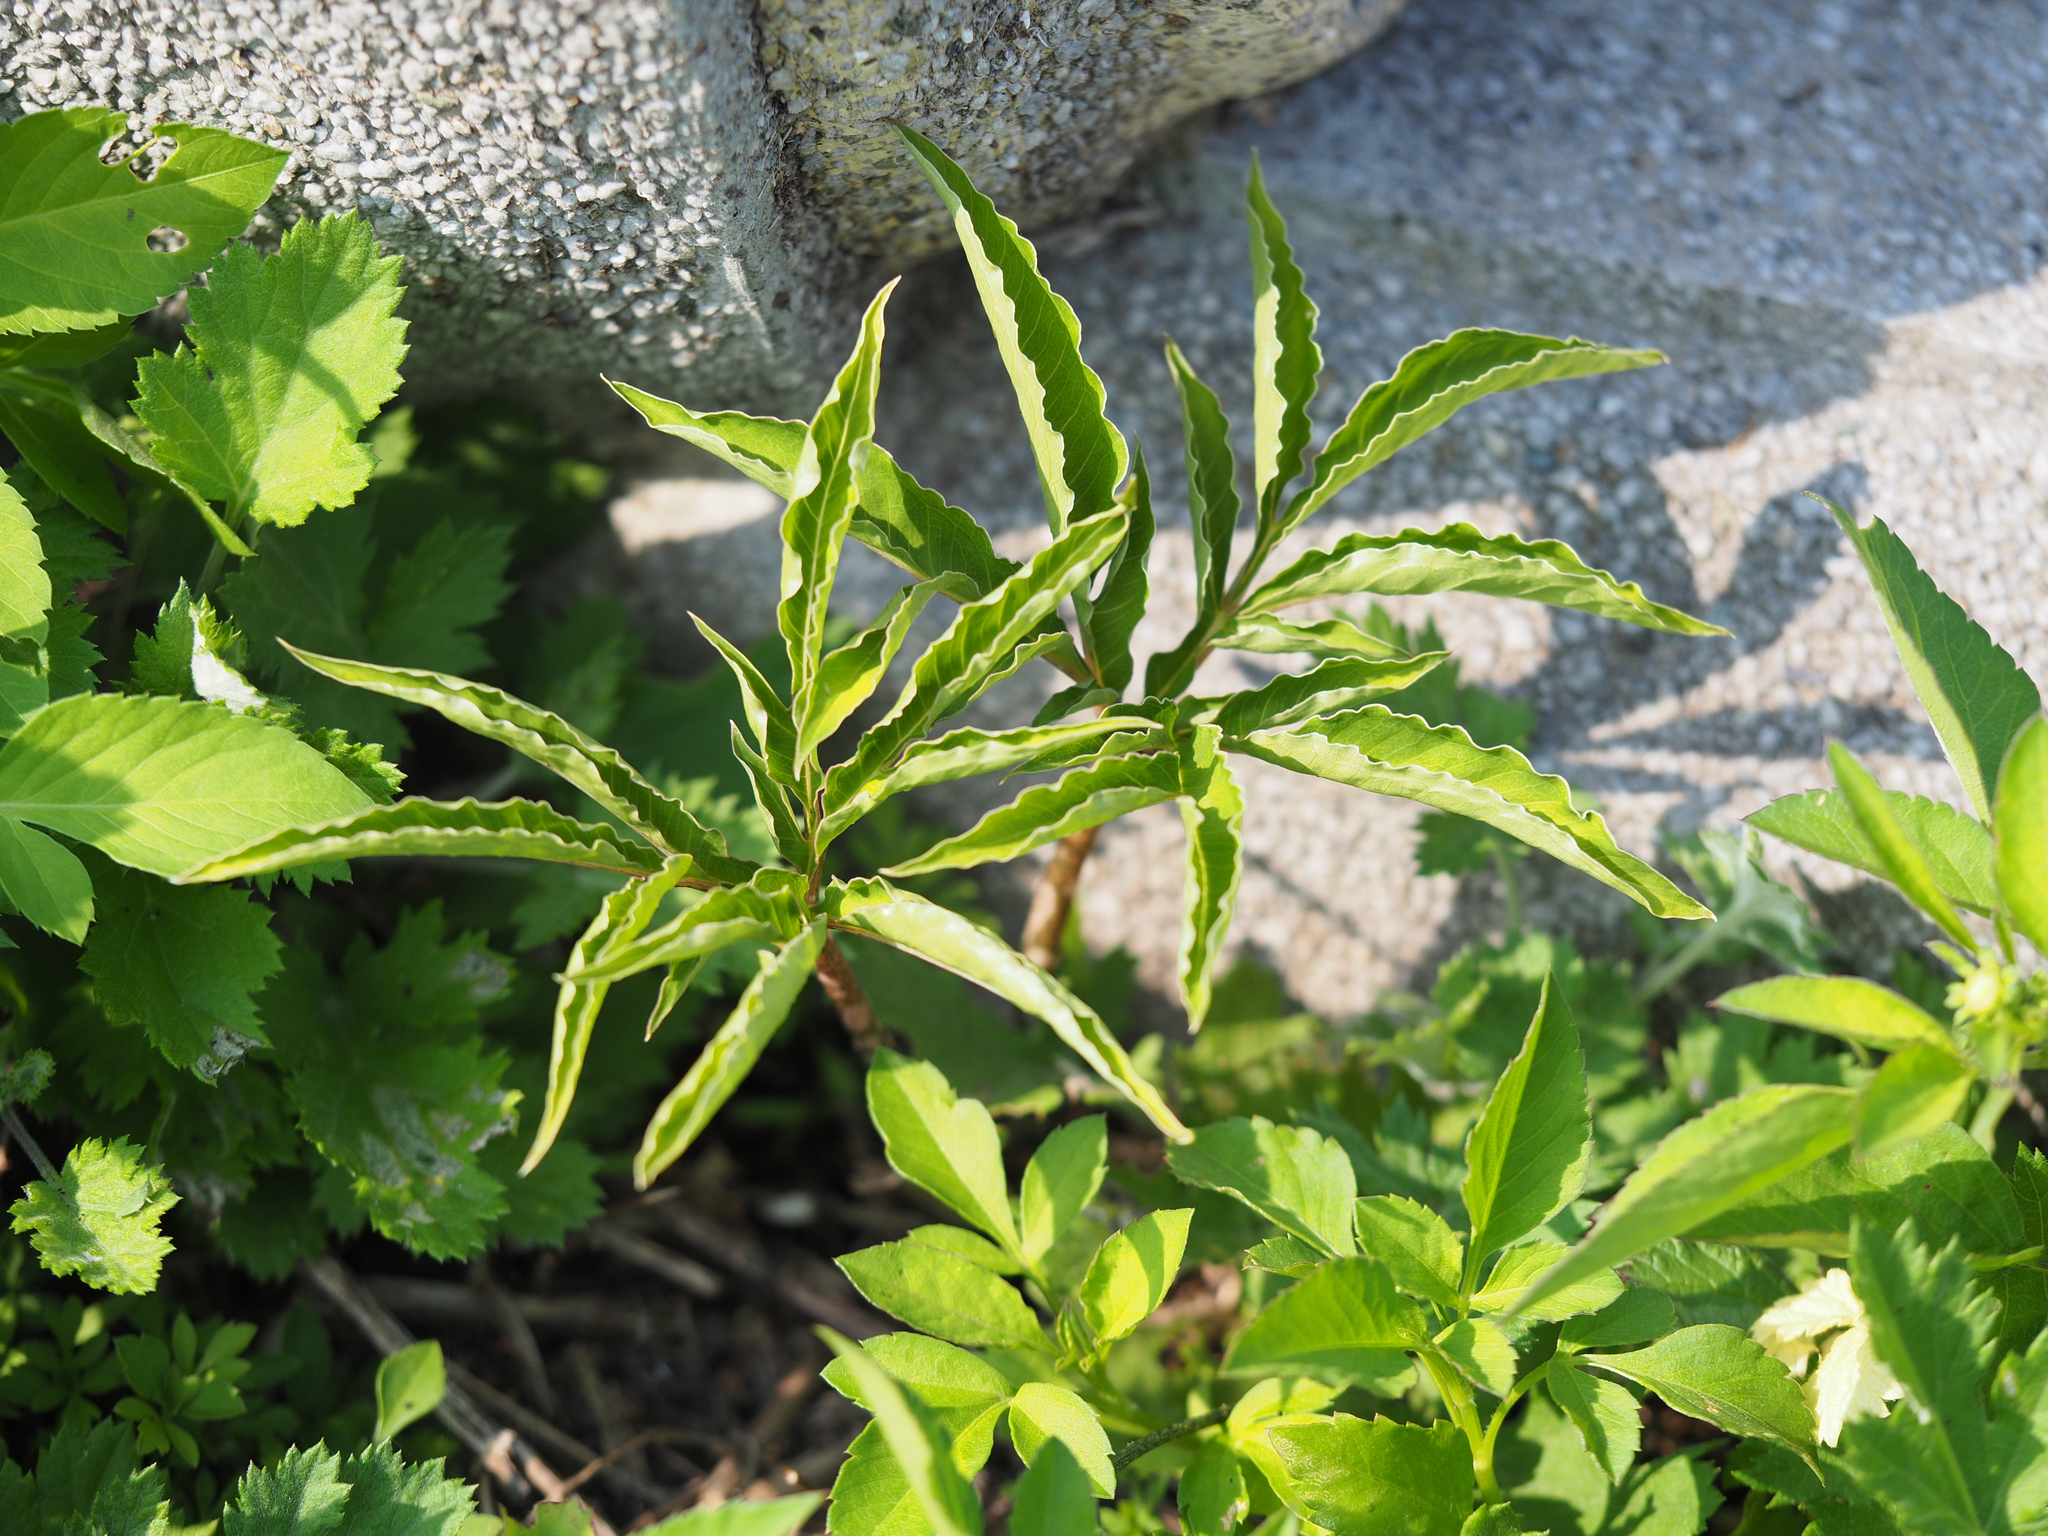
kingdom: Plantae
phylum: Tracheophyta
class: Liliopsida
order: Alismatales
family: Araceae
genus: Amorphophallus
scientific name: Amorphophallus kiusianus
